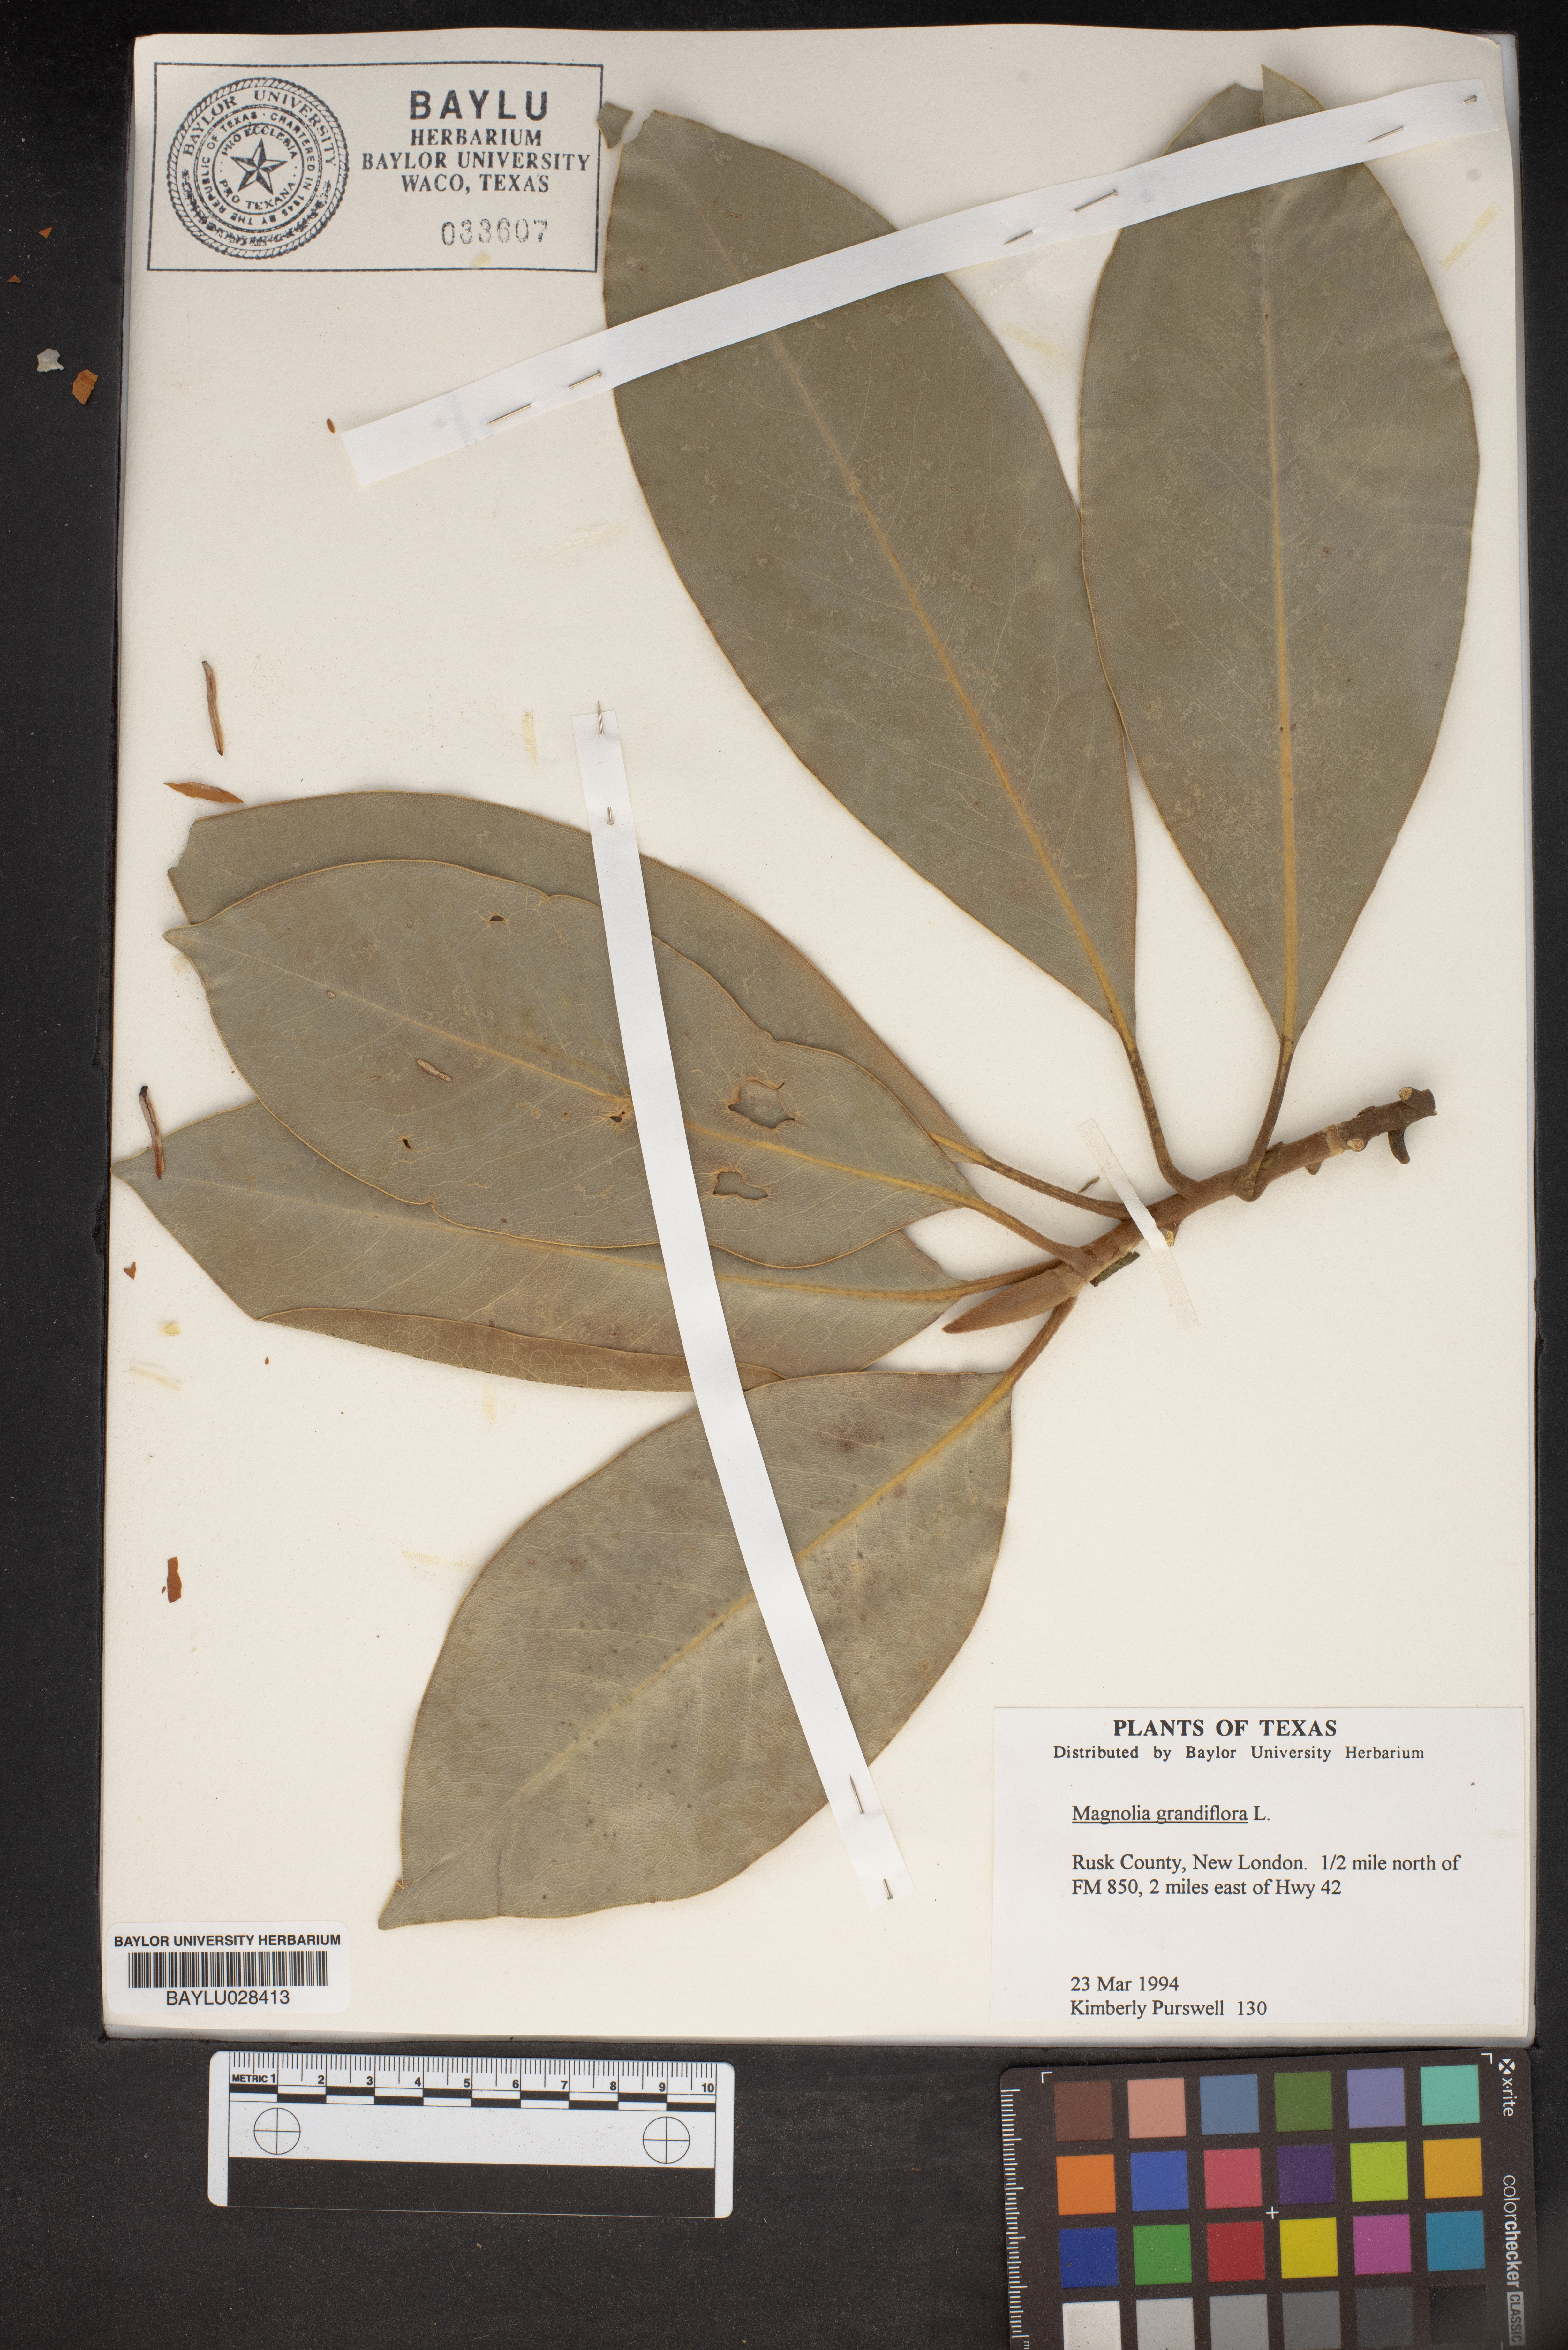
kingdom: Plantae
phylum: Tracheophyta
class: Magnoliopsida
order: Magnoliales
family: Magnoliaceae
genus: Magnolia
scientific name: Magnolia grandiflora
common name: Southern magnolia
